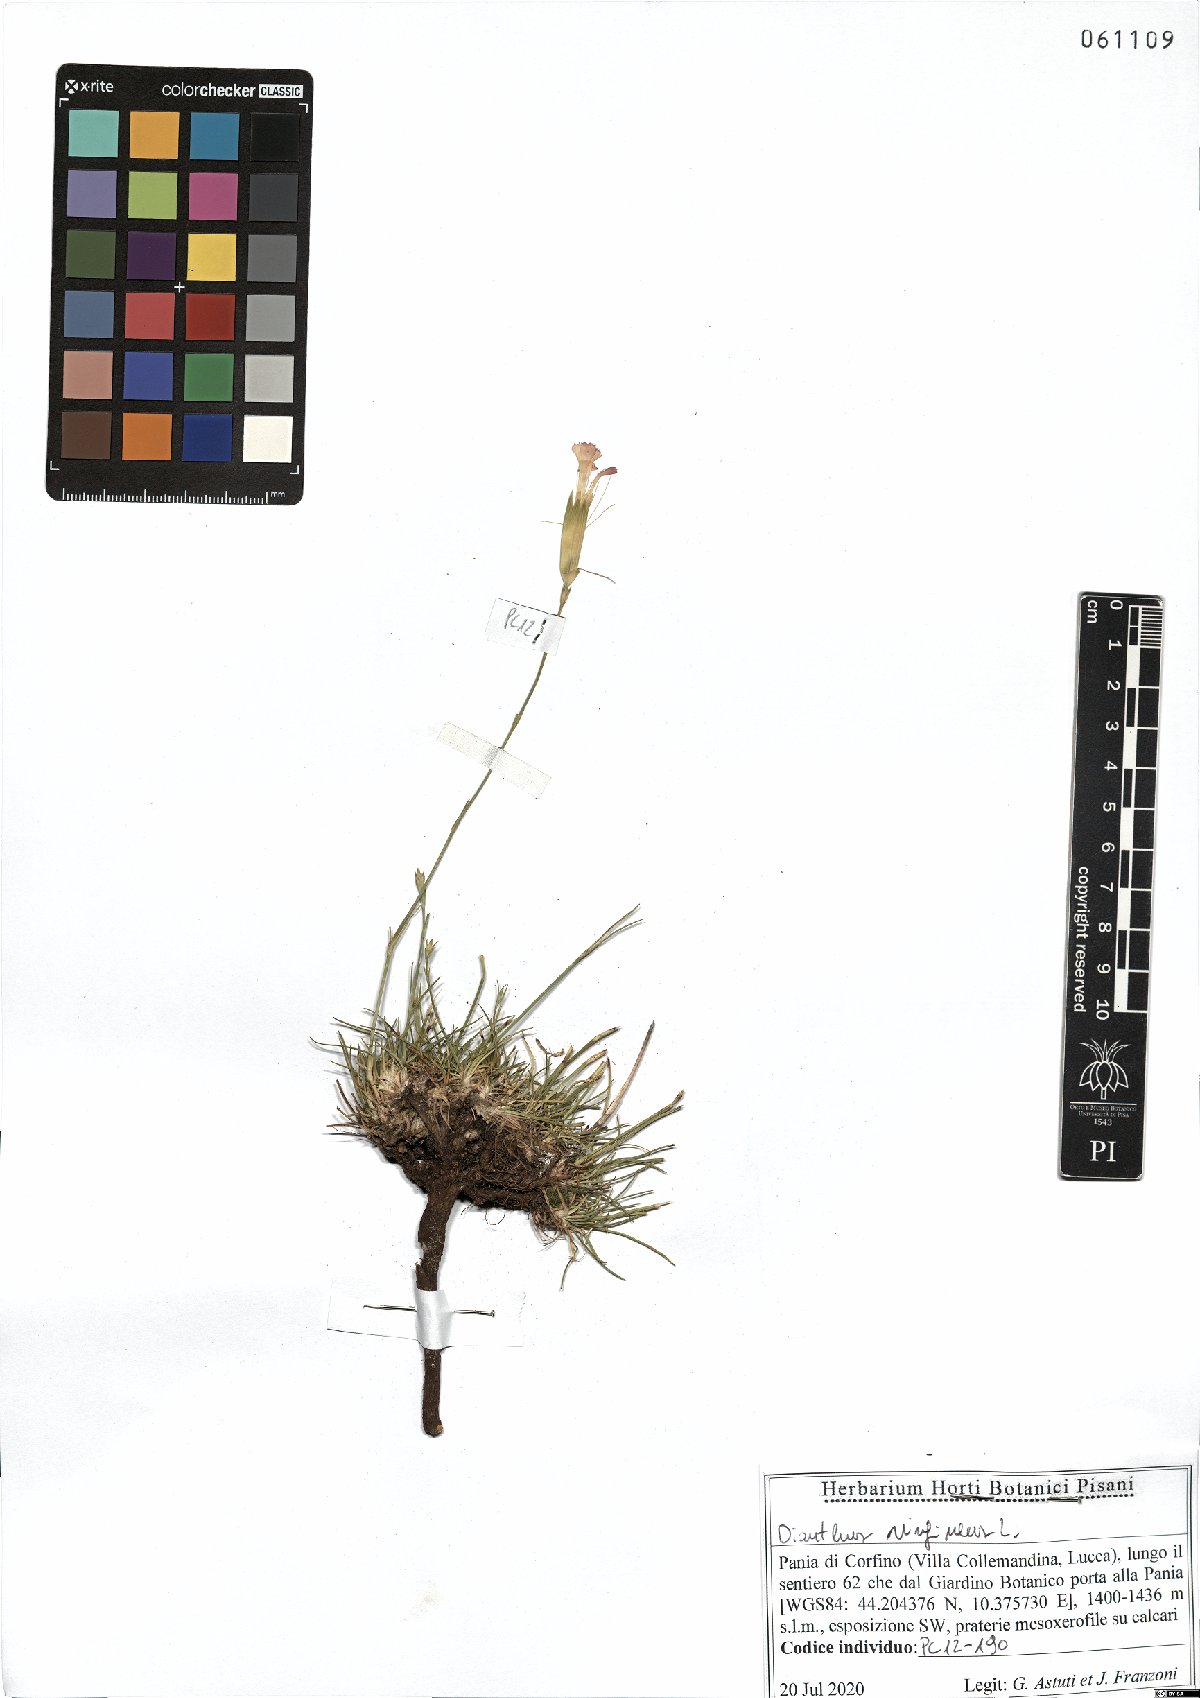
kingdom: Plantae
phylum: Tracheophyta
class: Magnoliopsida
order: Caryophyllales
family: Caryophyllaceae
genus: Dianthus
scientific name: Dianthus virgineus
